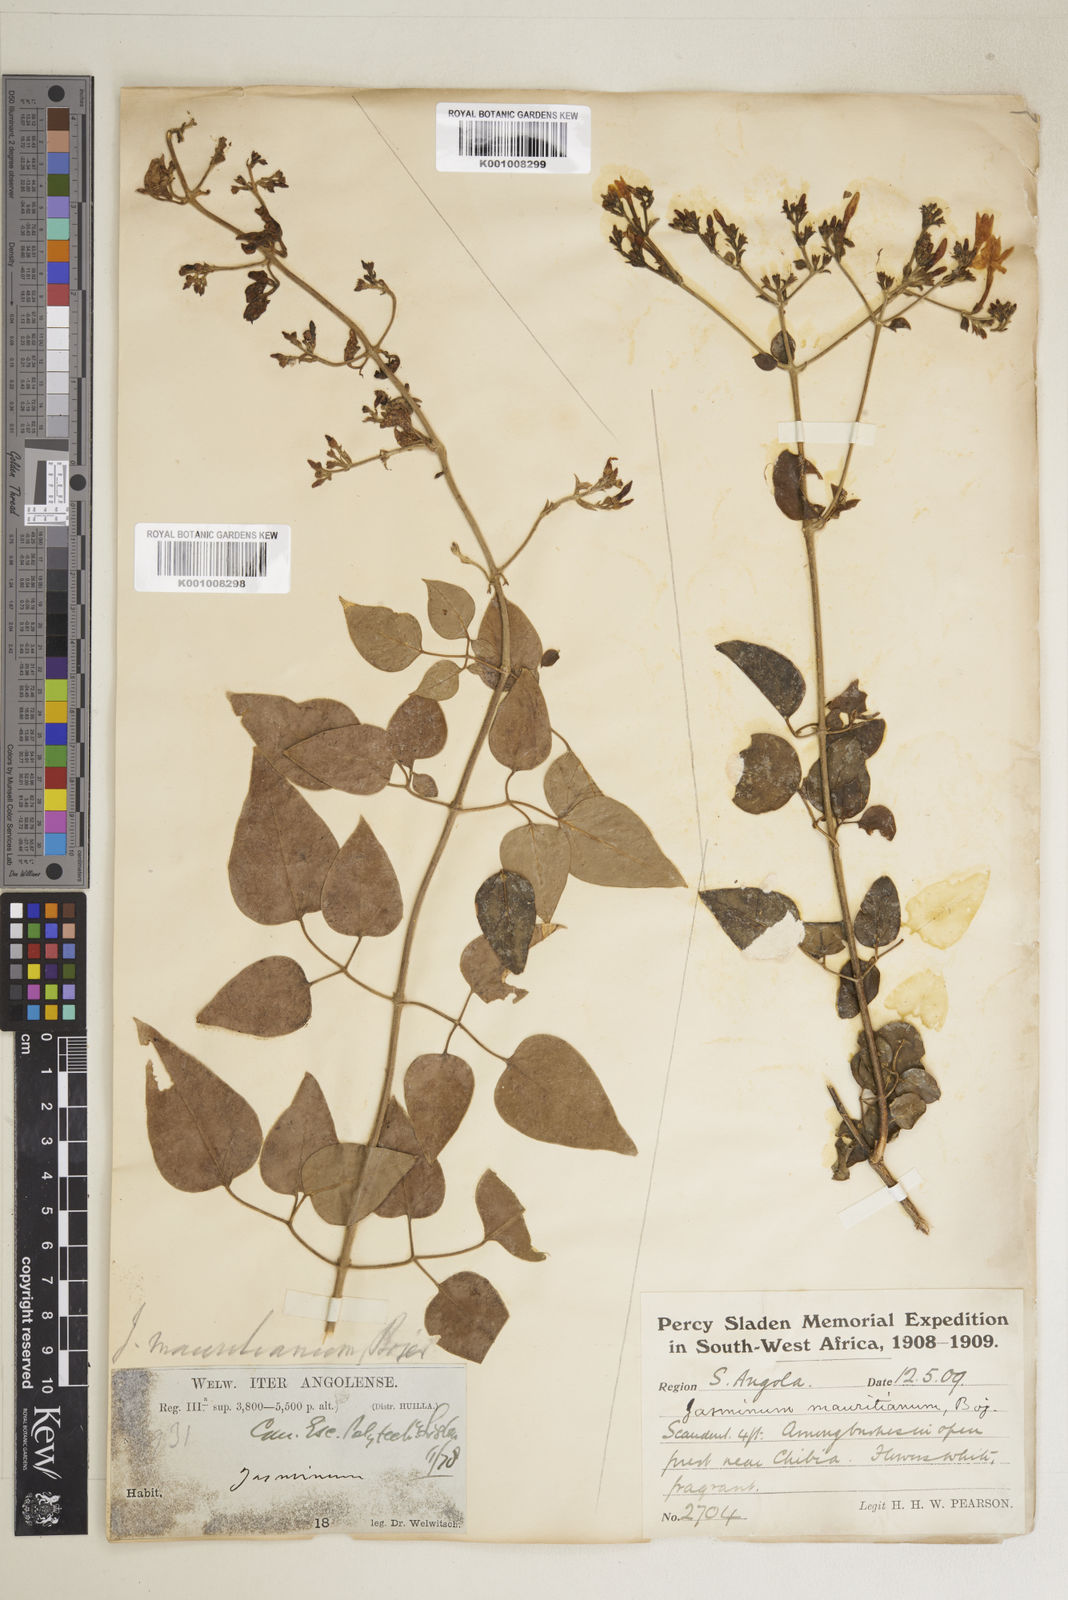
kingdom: Plantae
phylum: Tracheophyta
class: Magnoliopsida
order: Lamiales
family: Oleaceae
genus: Jasminum
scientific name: Jasminum fluminense
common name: Brazilian jasmine
